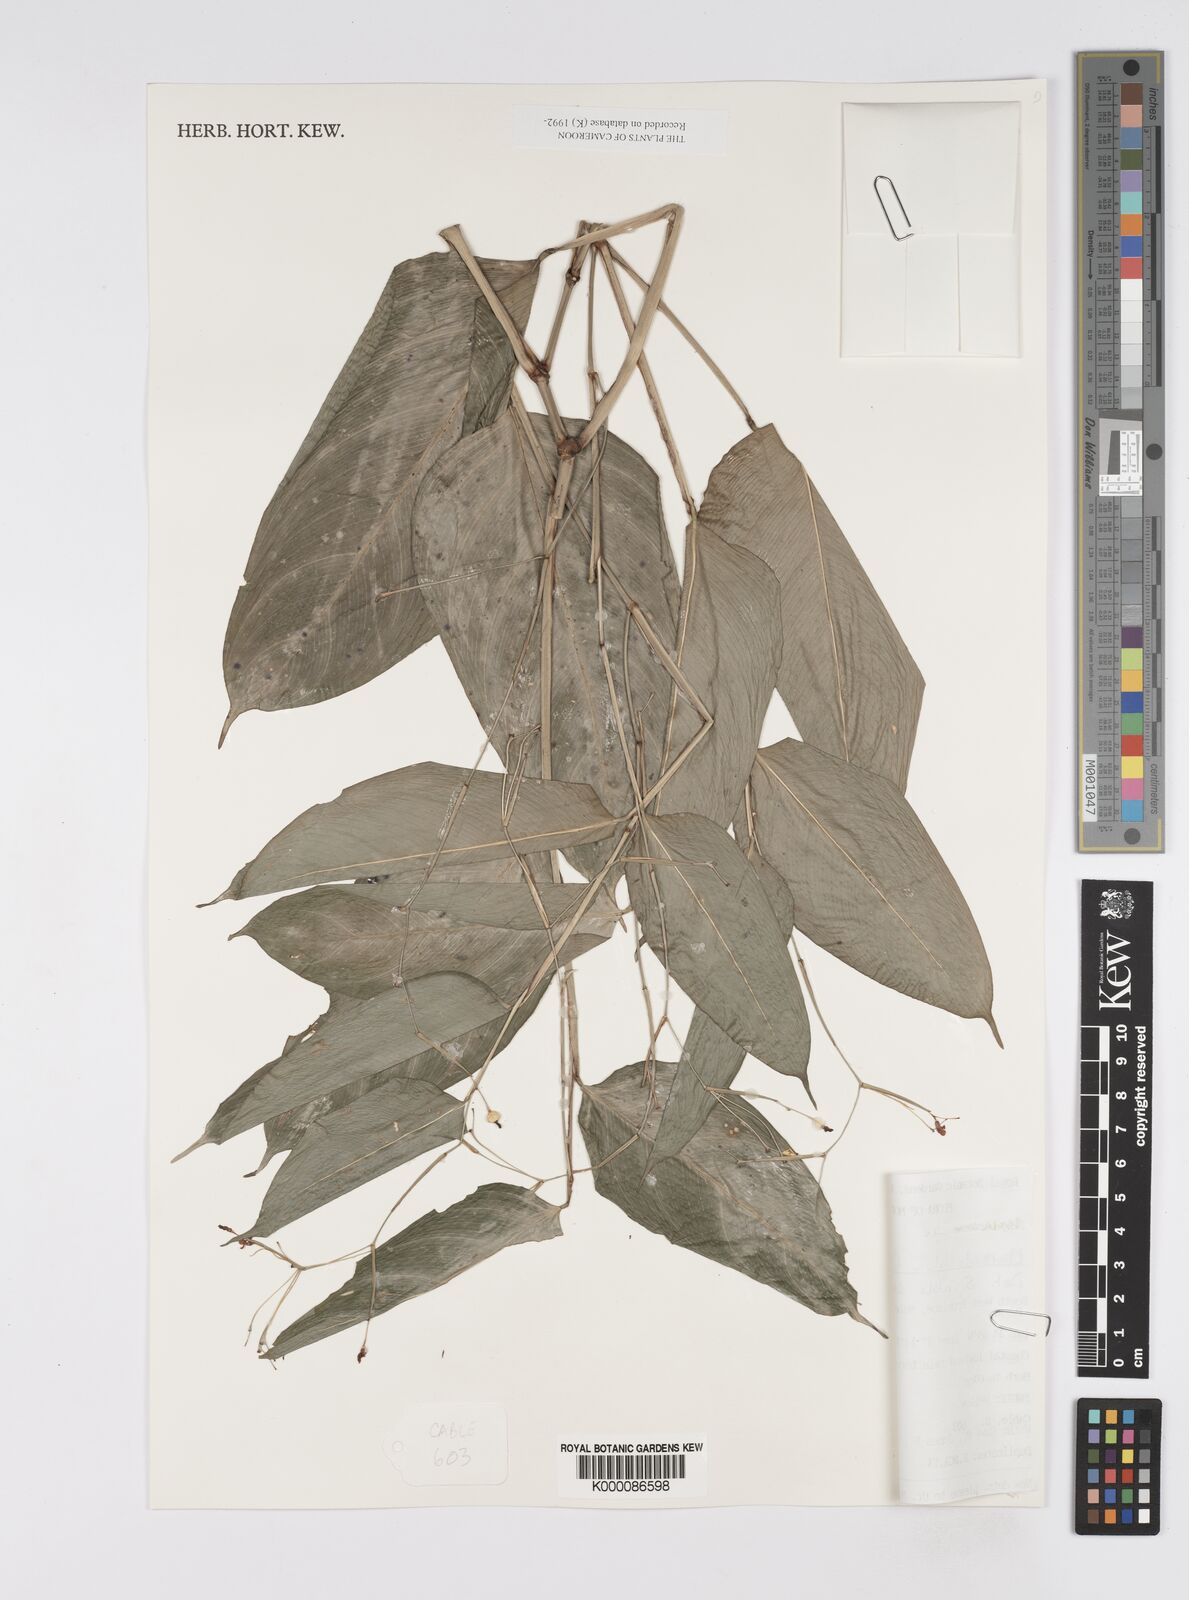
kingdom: Plantae
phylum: Tracheophyta
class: Liliopsida
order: Zingiberales
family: Marantaceae
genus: Marantochloa
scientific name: Marantochloa filipes
